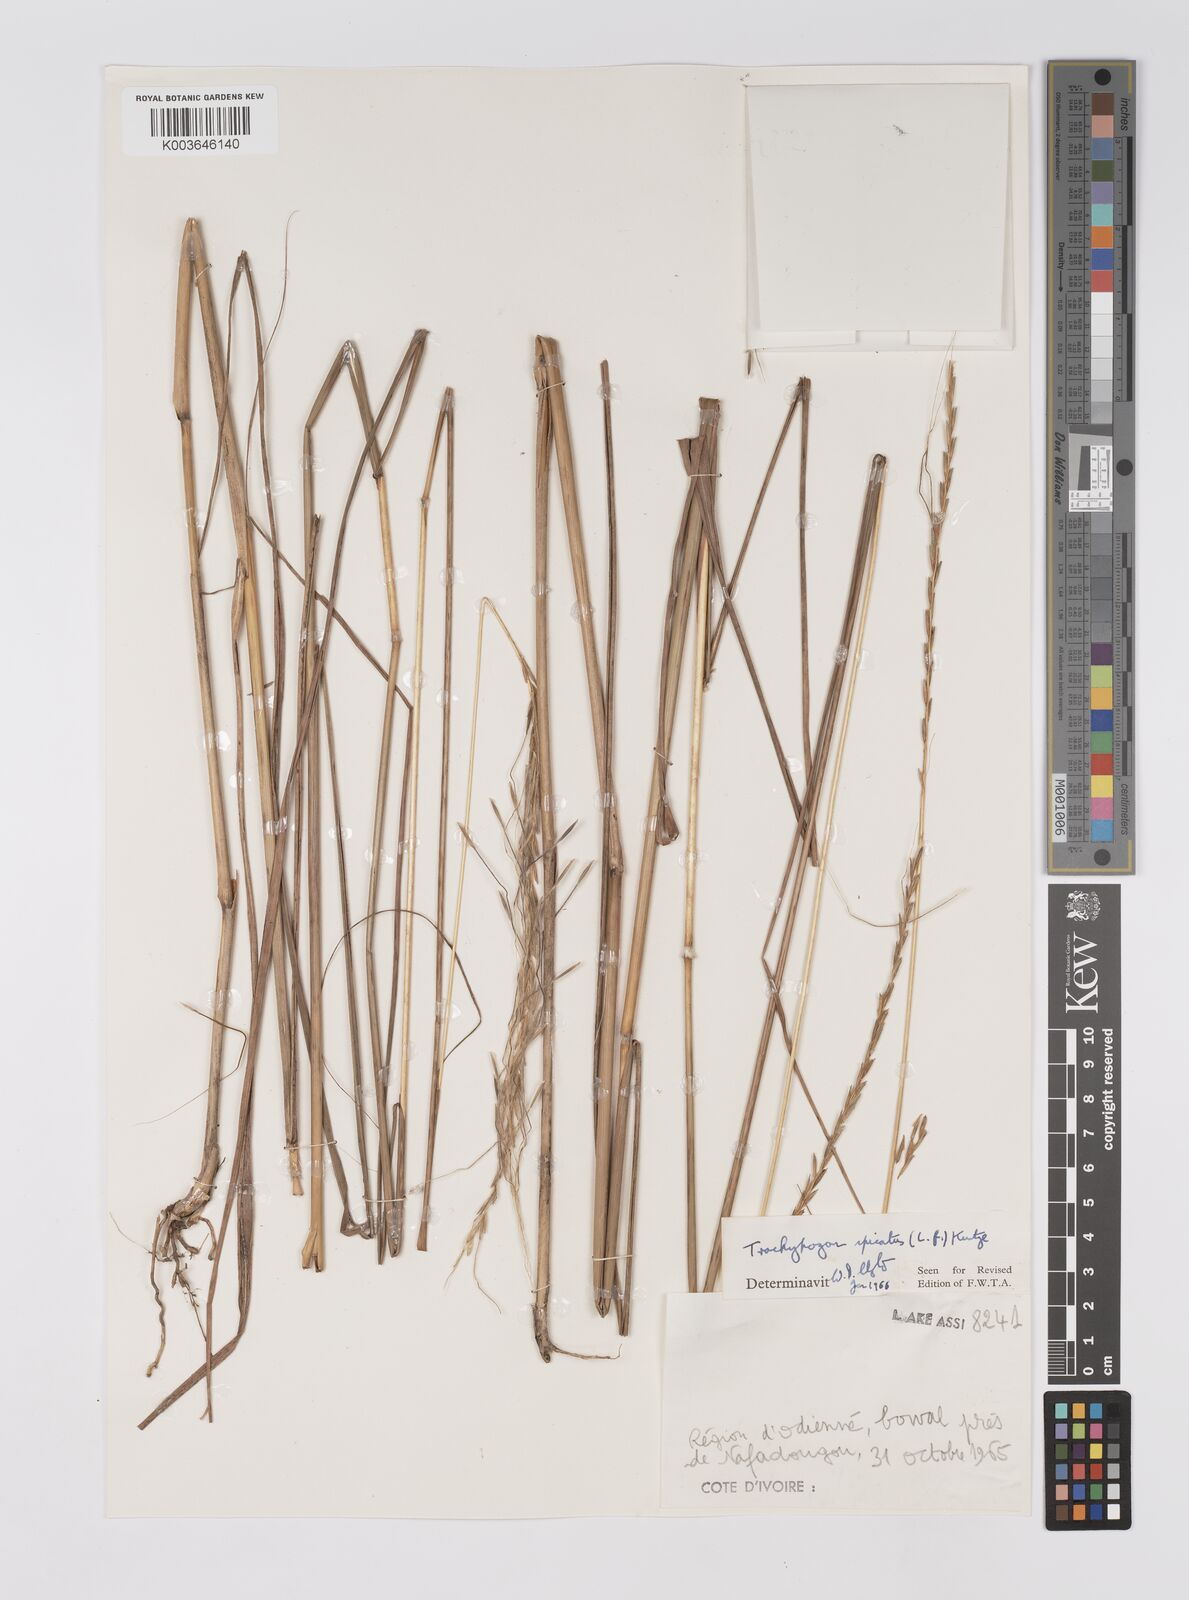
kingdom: Plantae
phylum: Tracheophyta
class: Liliopsida
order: Poales
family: Poaceae
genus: Trachypogon
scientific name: Trachypogon spicatus
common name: Crinkle-awn
